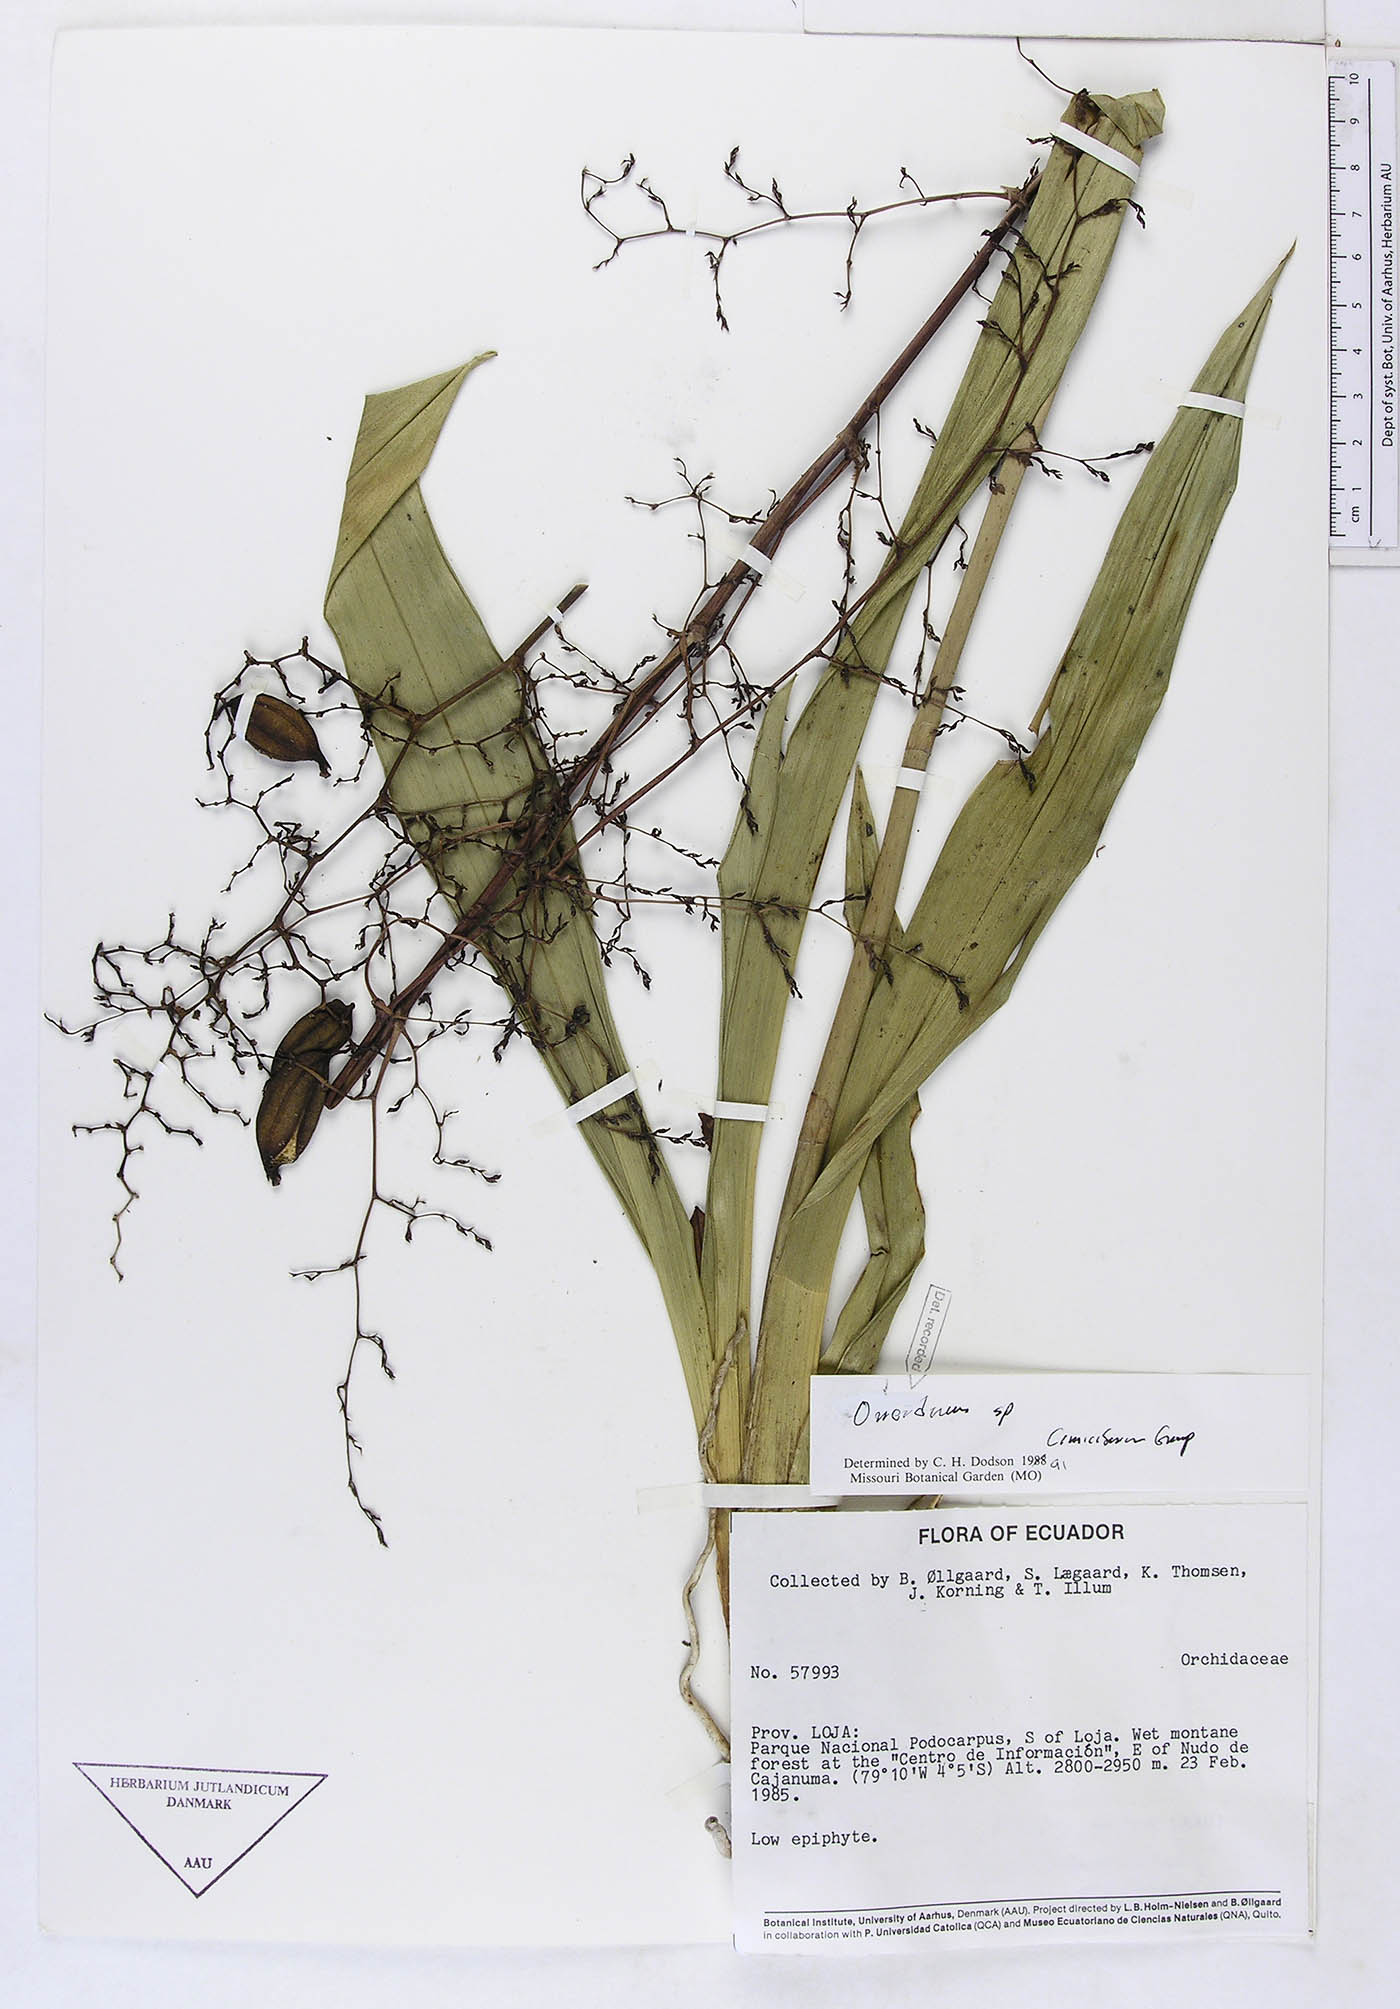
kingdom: Plantae
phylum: Tracheophyta
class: Liliopsida
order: Asparagales
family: Orchidaceae
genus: Oncidium
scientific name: Oncidium
